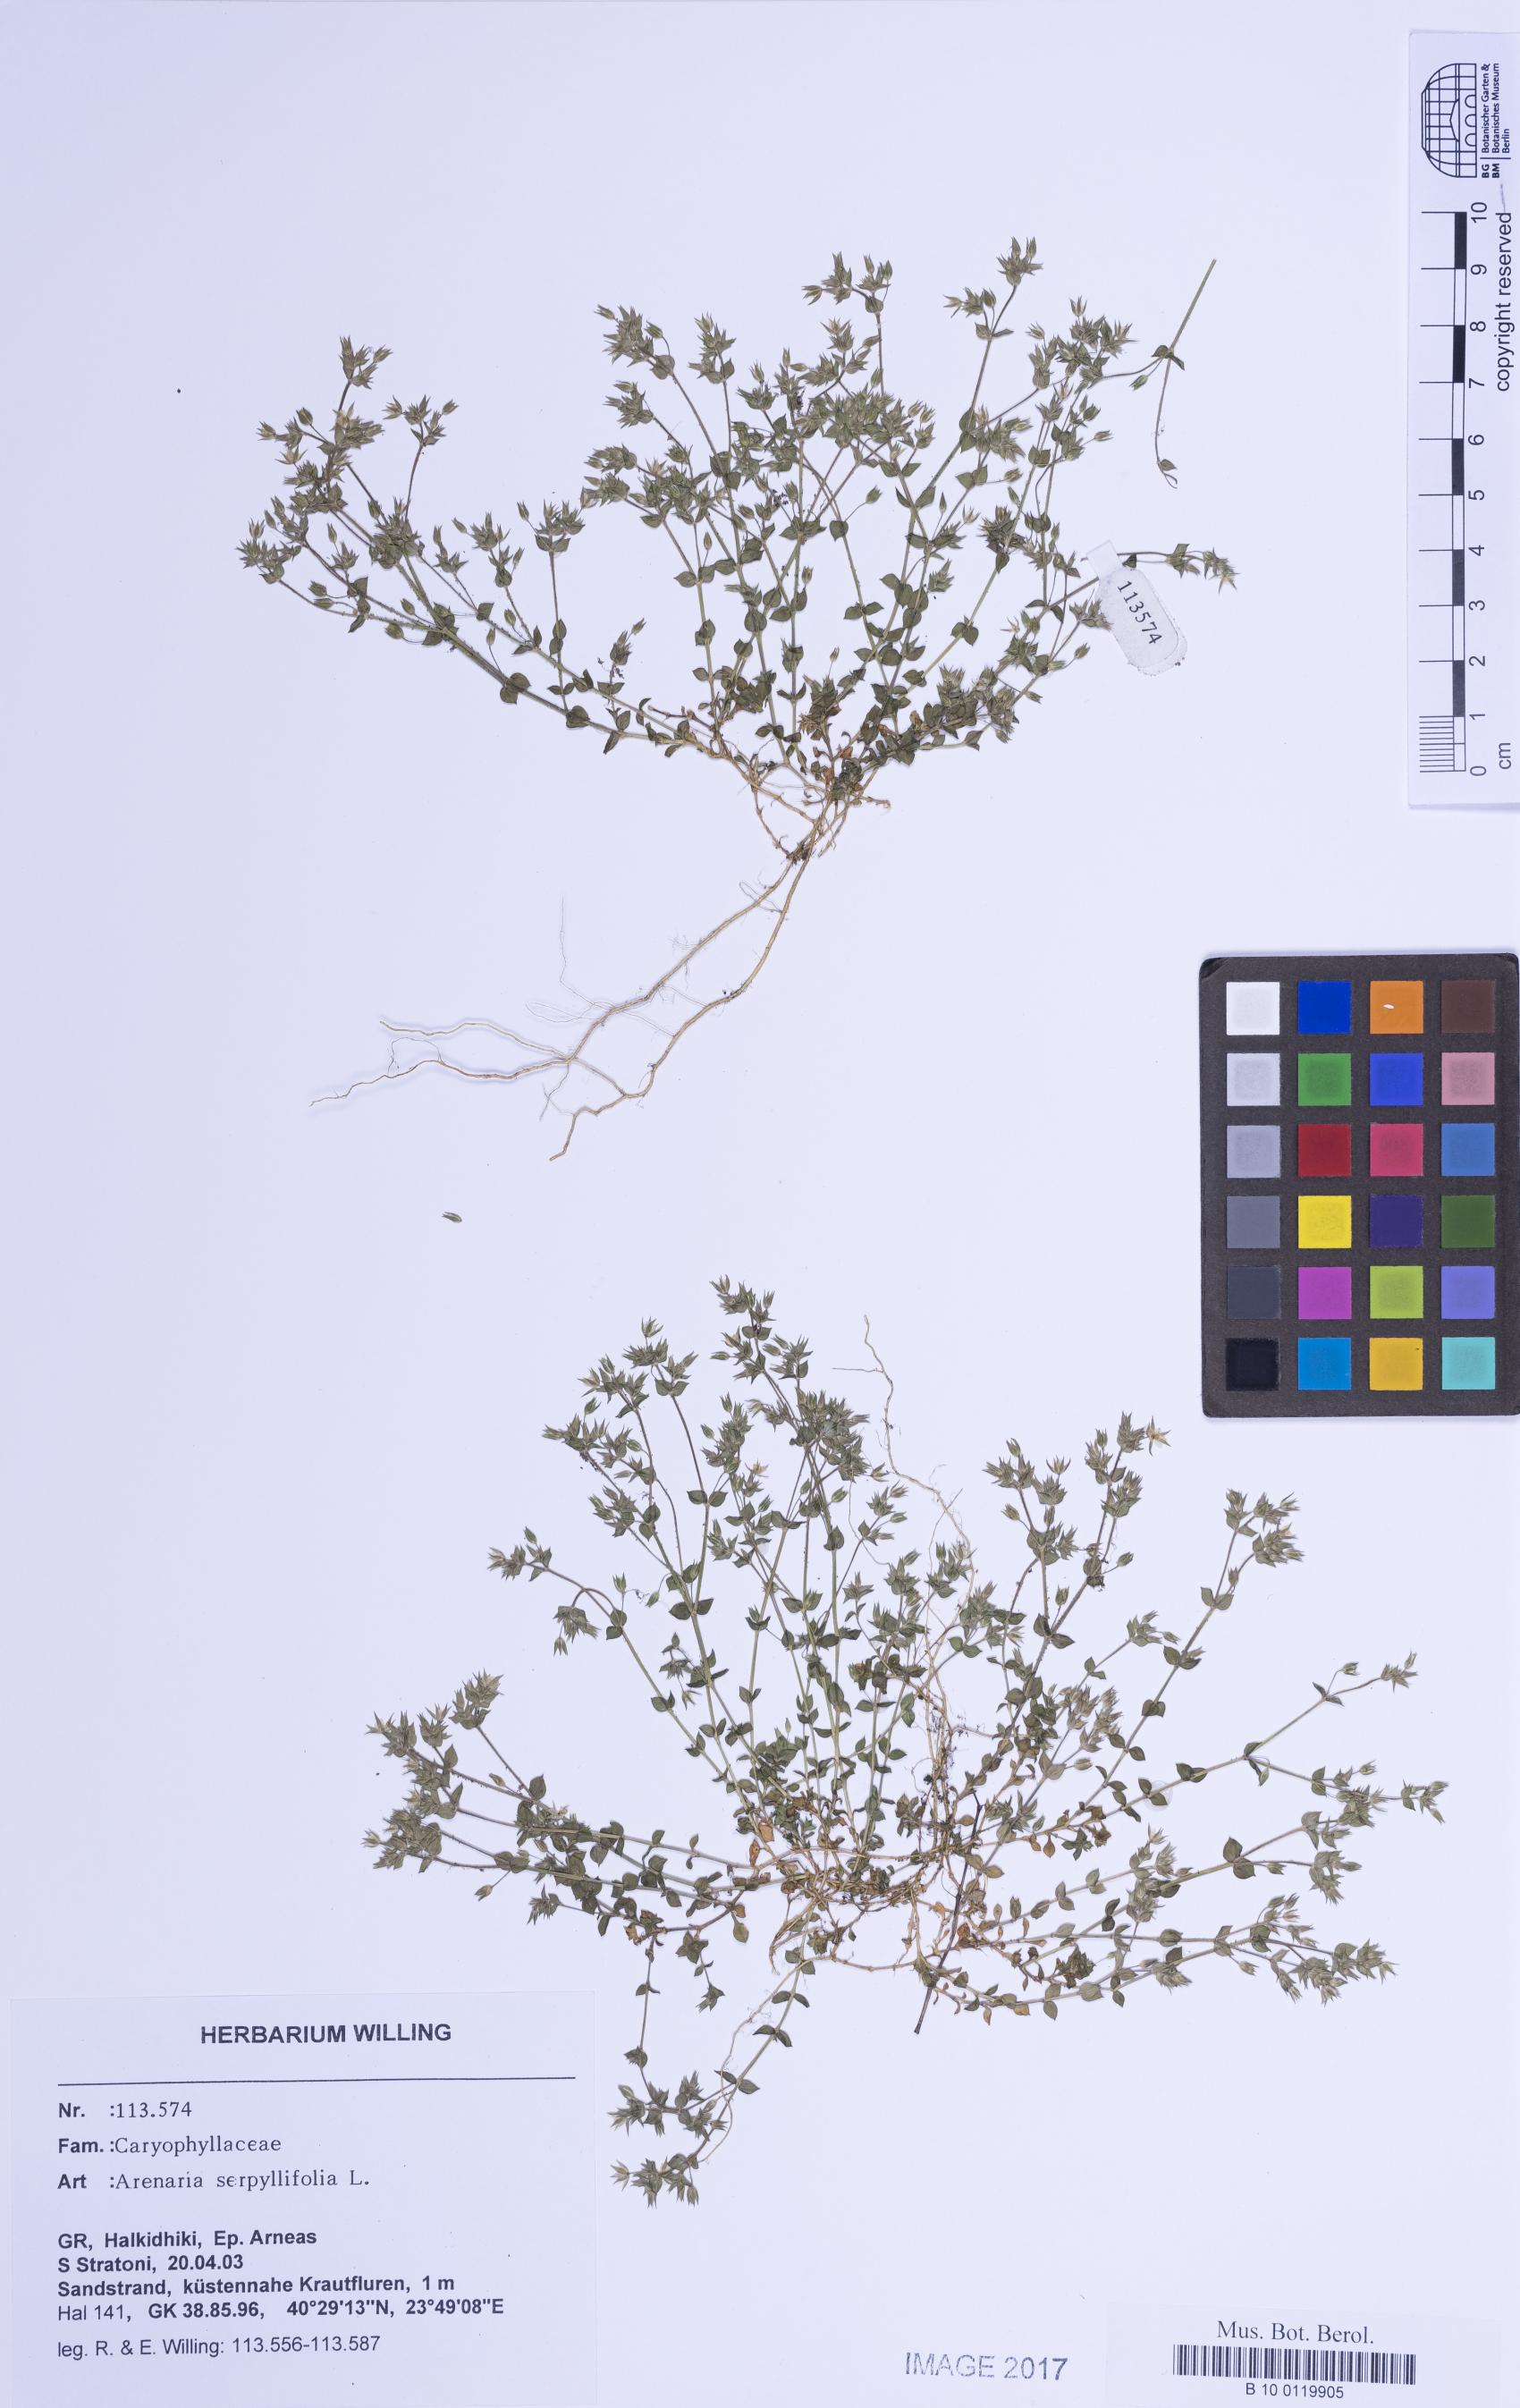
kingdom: Plantae
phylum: Tracheophyta
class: Magnoliopsida
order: Caryophyllales
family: Caryophyllaceae
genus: Arenaria
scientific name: Arenaria serpyllifolia
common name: Thyme-leaved sandwort
